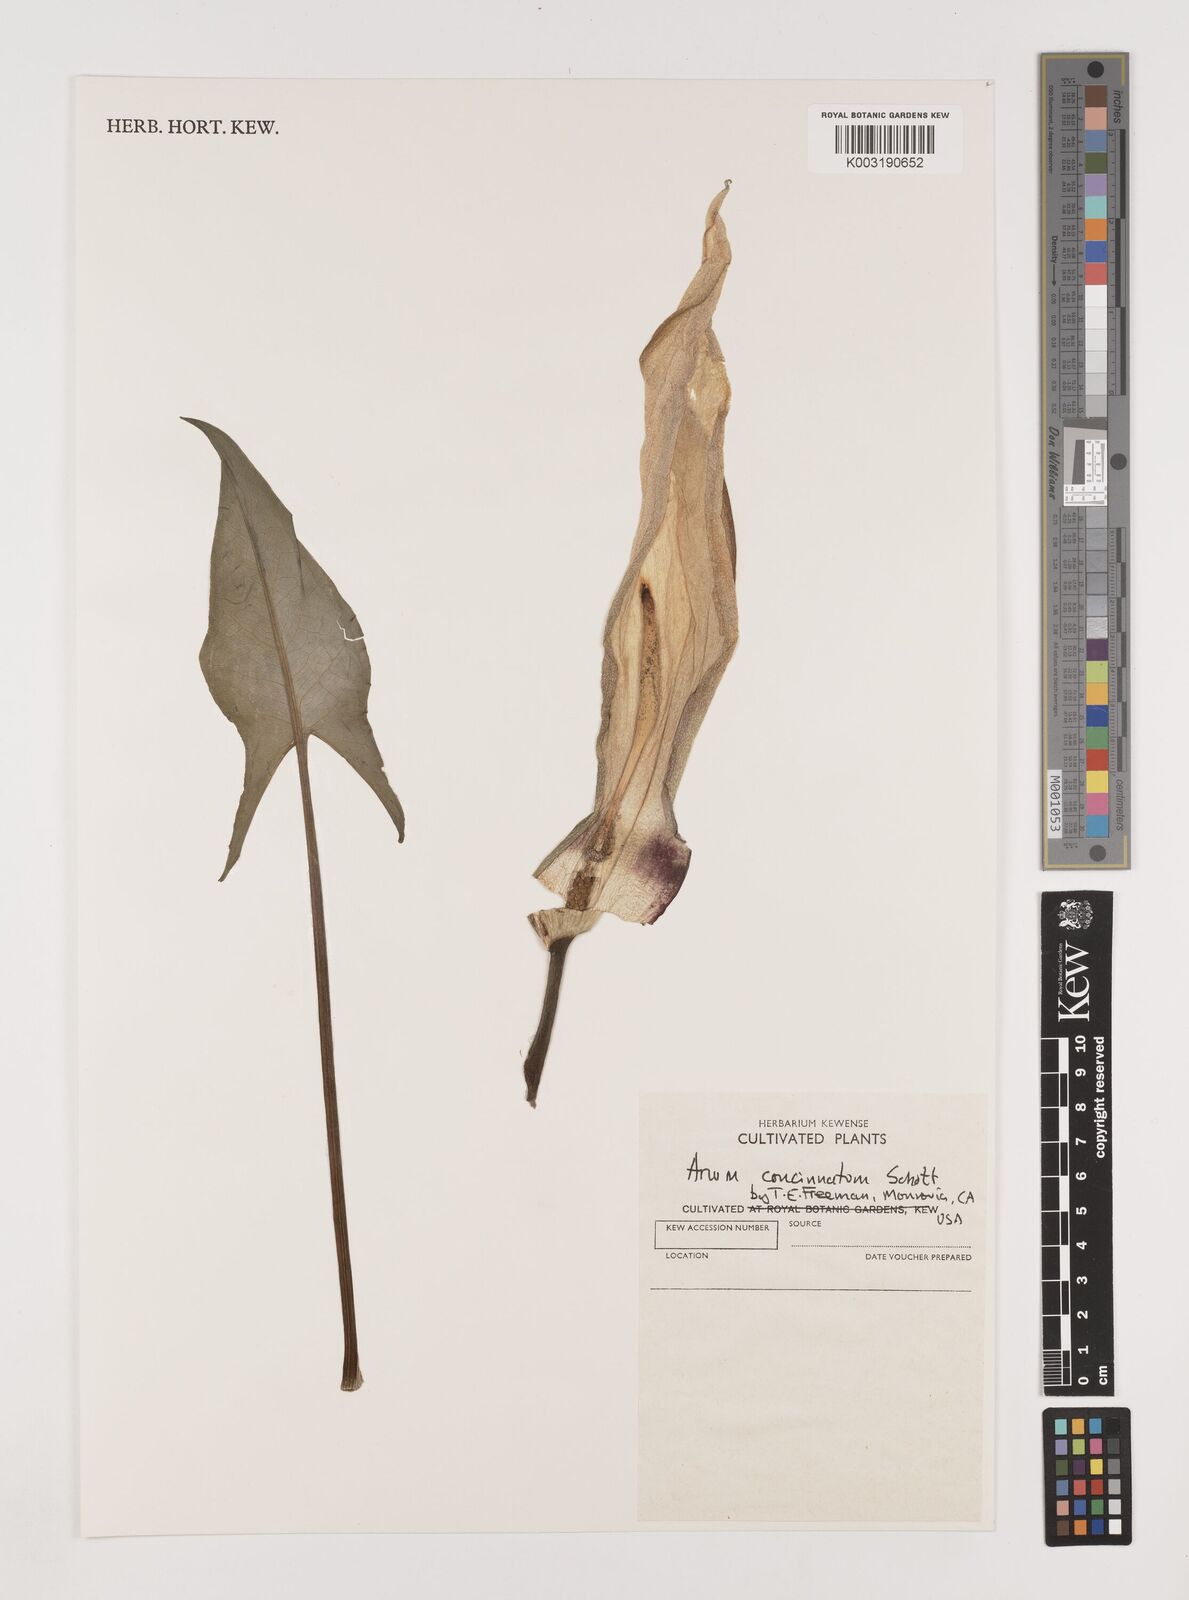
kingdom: Plantae
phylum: Tracheophyta
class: Liliopsida
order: Alismatales
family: Araceae
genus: Arum
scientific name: Arum concinnatum
